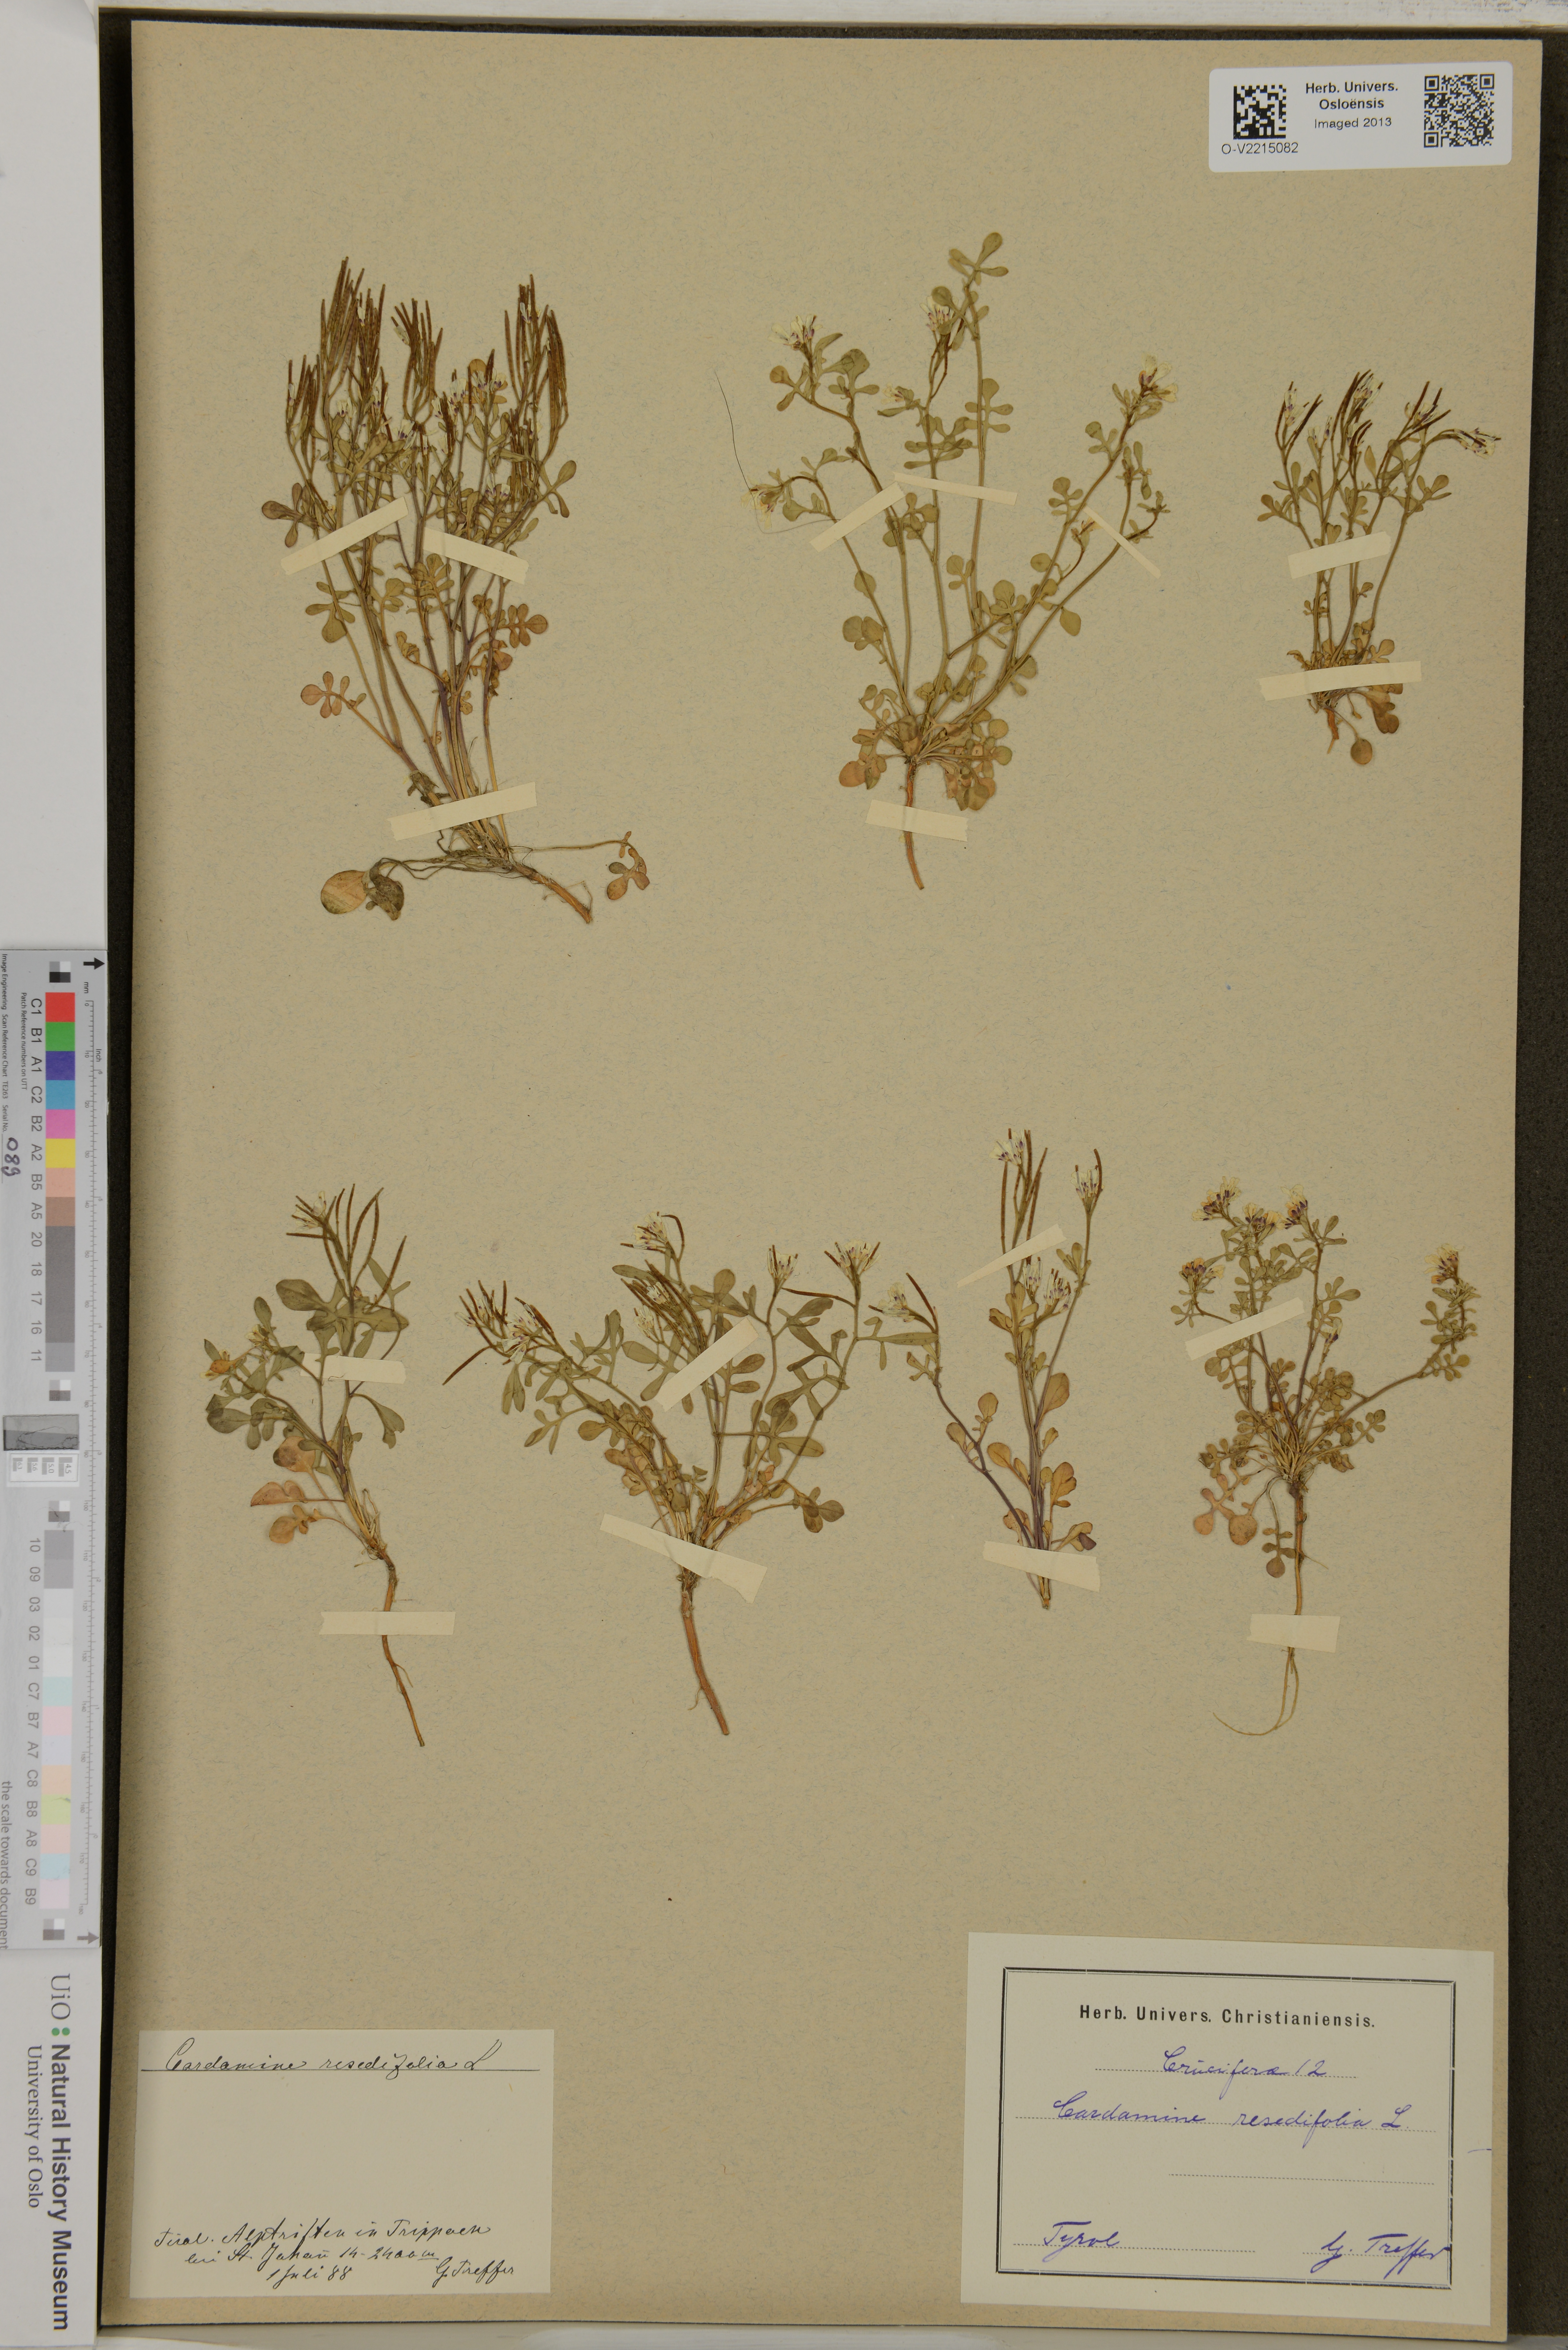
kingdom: Plantae
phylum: Tracheophyta
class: Magnoliopsida
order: Brassicales
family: Brassicaceae
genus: Cardamine
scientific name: Cardamine resedifolia
